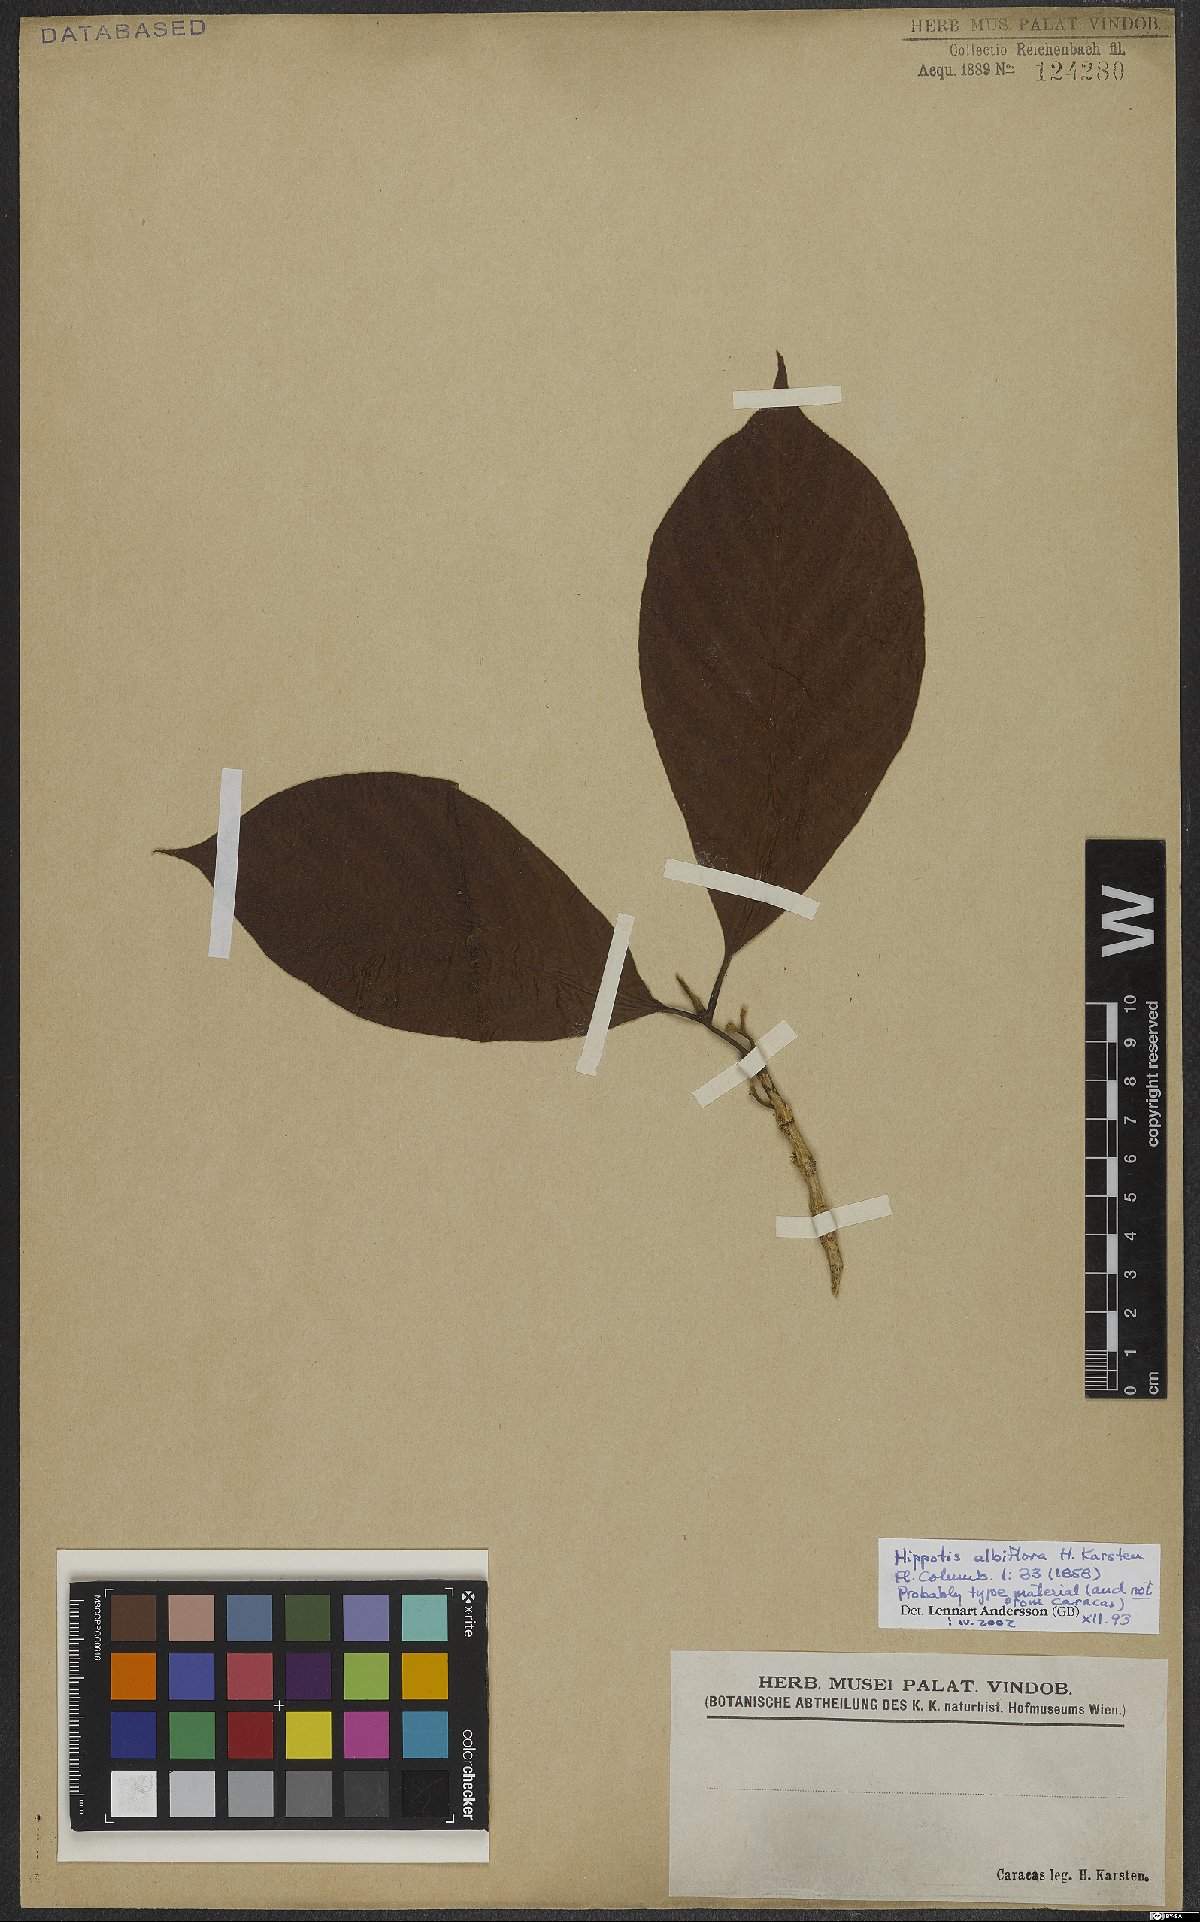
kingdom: Plantae
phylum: Tracheophyta
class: Magnoliopsida
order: Gentianales
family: Rubiaceae
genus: Hippotis
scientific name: Hippotis albiflora
